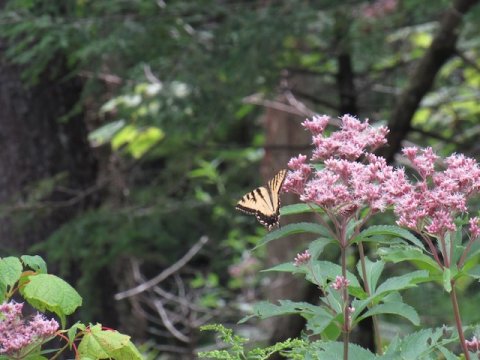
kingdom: Animalia
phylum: Arthropoda
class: Insecta
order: Lepidoptera
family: Papilionidae
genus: Pterourus
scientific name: Pterourus
